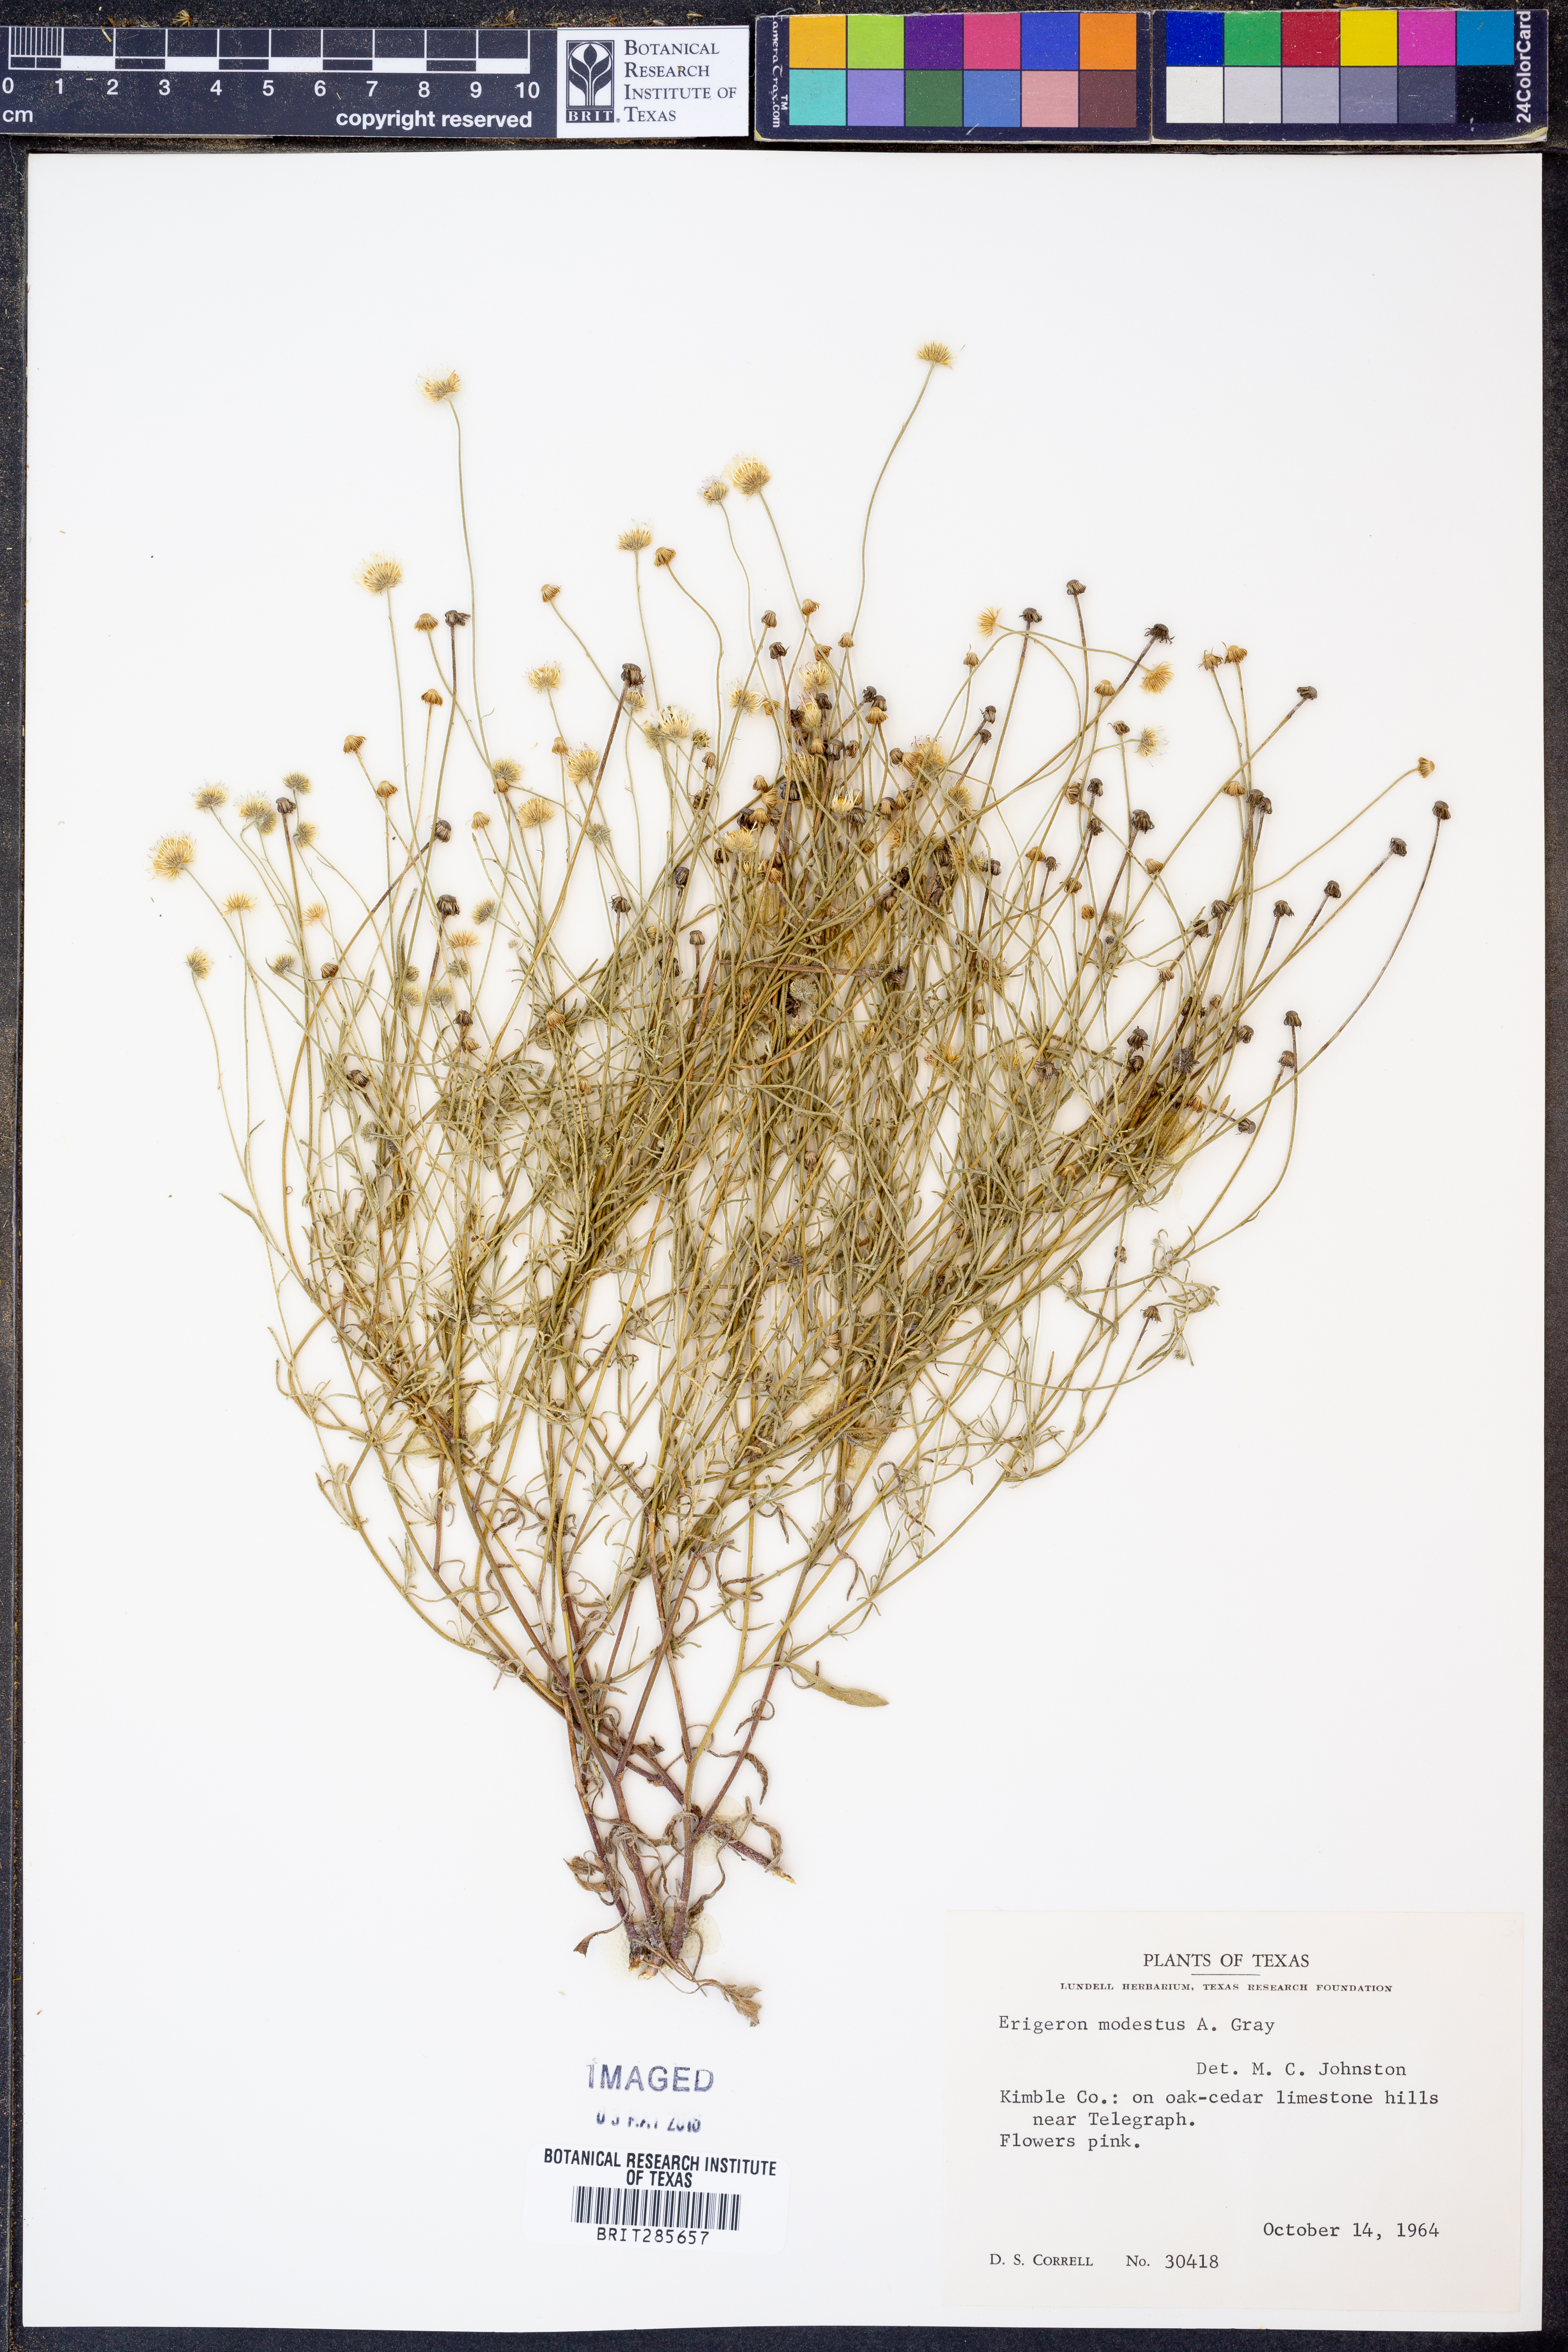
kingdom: Plantae
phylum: Tracheophyta
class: Magnoliopsida
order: Asterales
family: Asteraceae
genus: Erigeron
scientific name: Erigeron modestus
